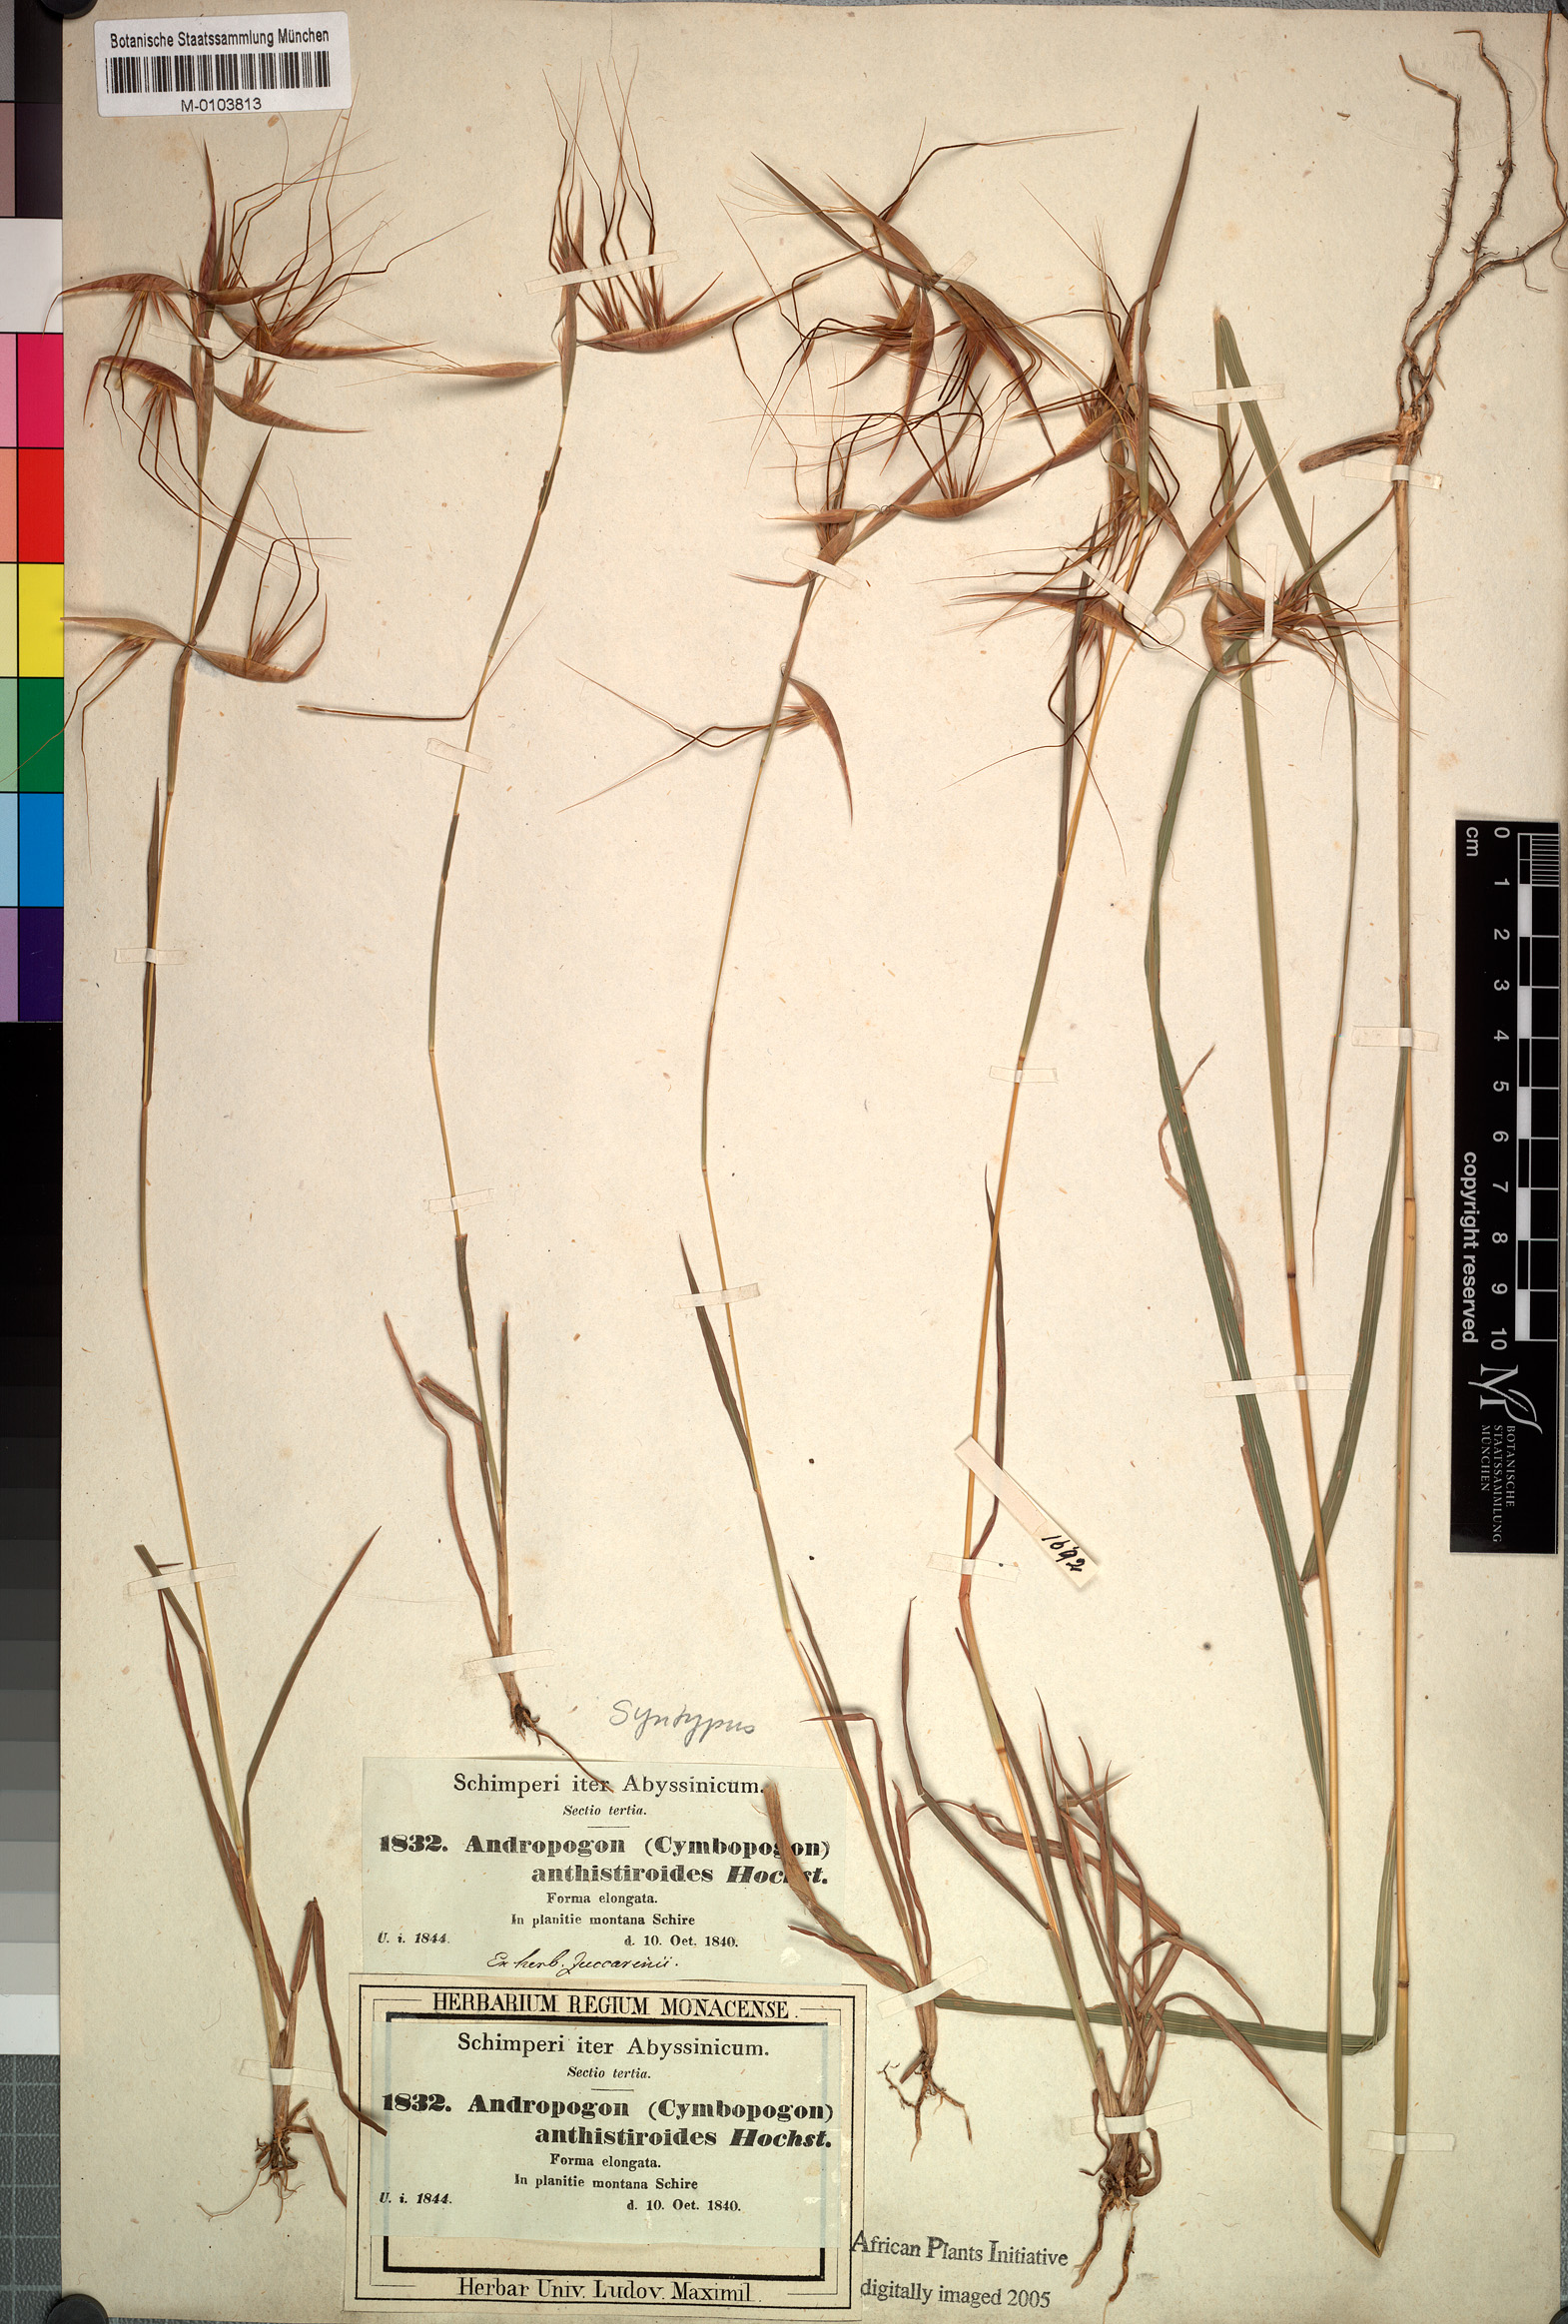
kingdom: Plantae
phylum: Tracheophyta
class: Liliopsida
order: Poales
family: Poaceae
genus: Hyparrhenia
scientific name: Hyparrhenia anthistirioides
